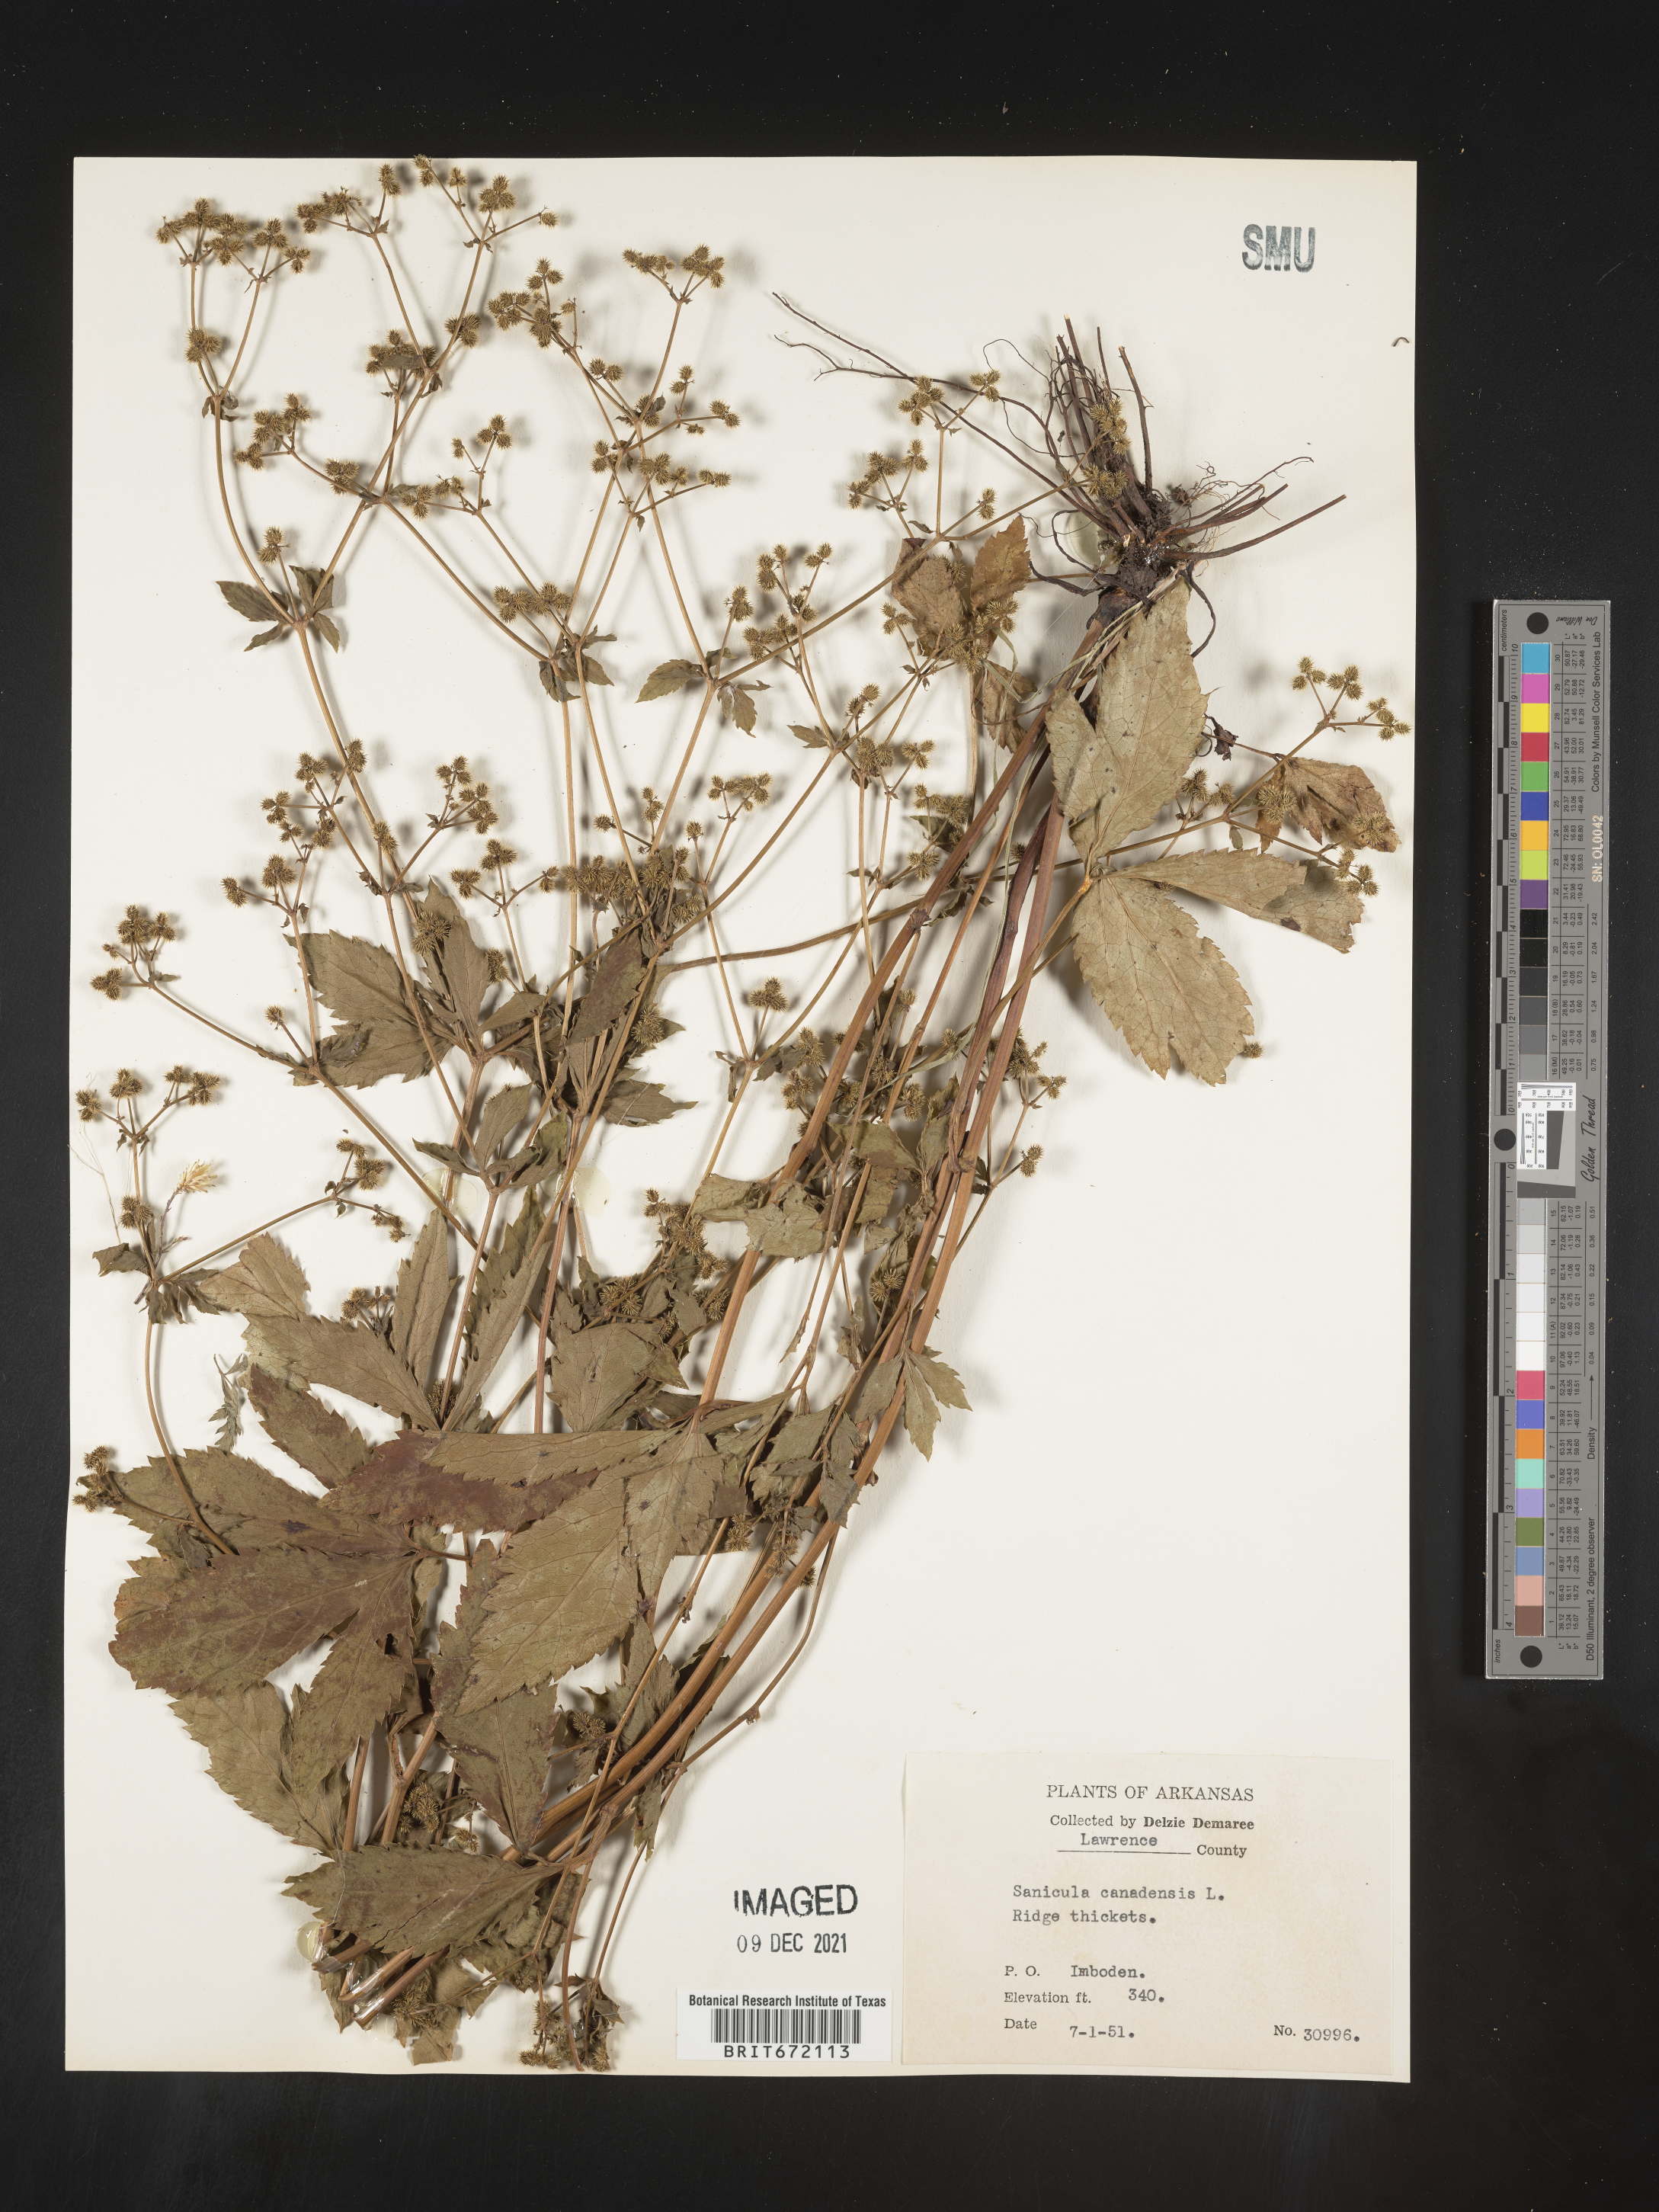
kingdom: Plantae
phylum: Tracheophyta
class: Magnoliopsida
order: Apiales
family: Apiaceae
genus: Sanicula
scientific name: Sanicula canadensis
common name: Canada sanicle
